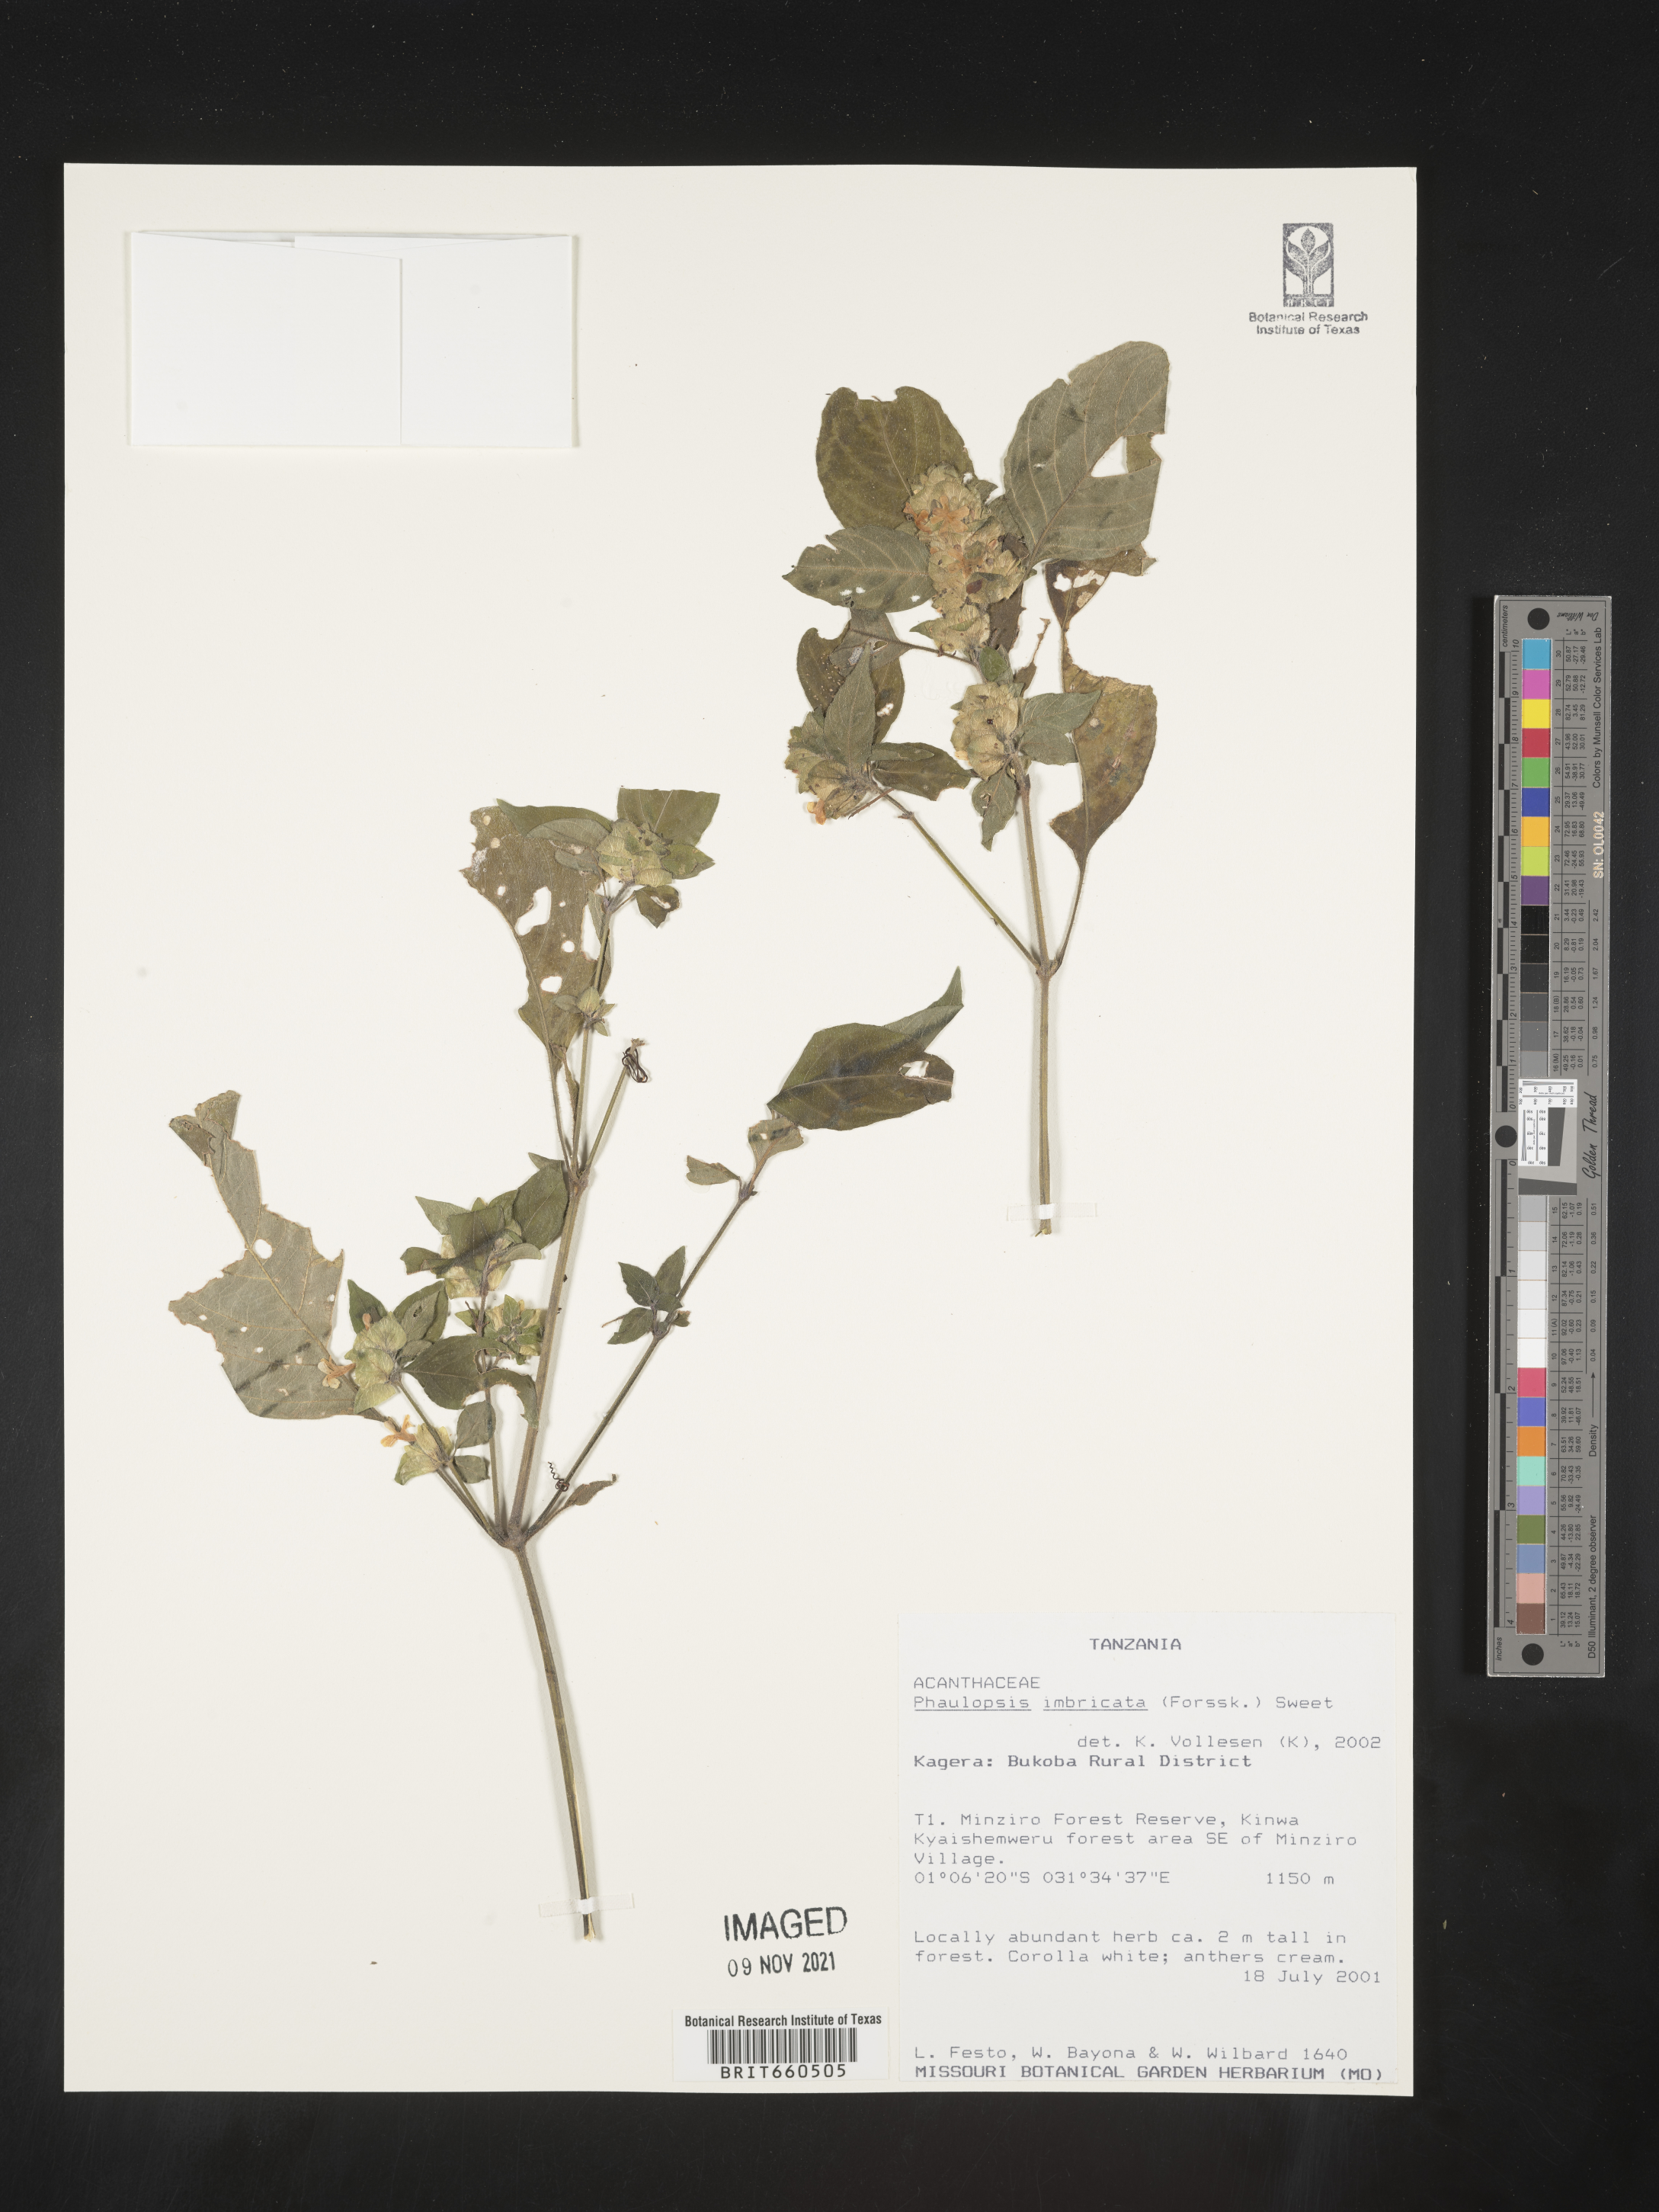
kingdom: Plantae
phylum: Tracheophyta
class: Magnoliopsida
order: Lamiales
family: Acanthaceae
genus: Phaulopsis
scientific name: Phaulopsis
